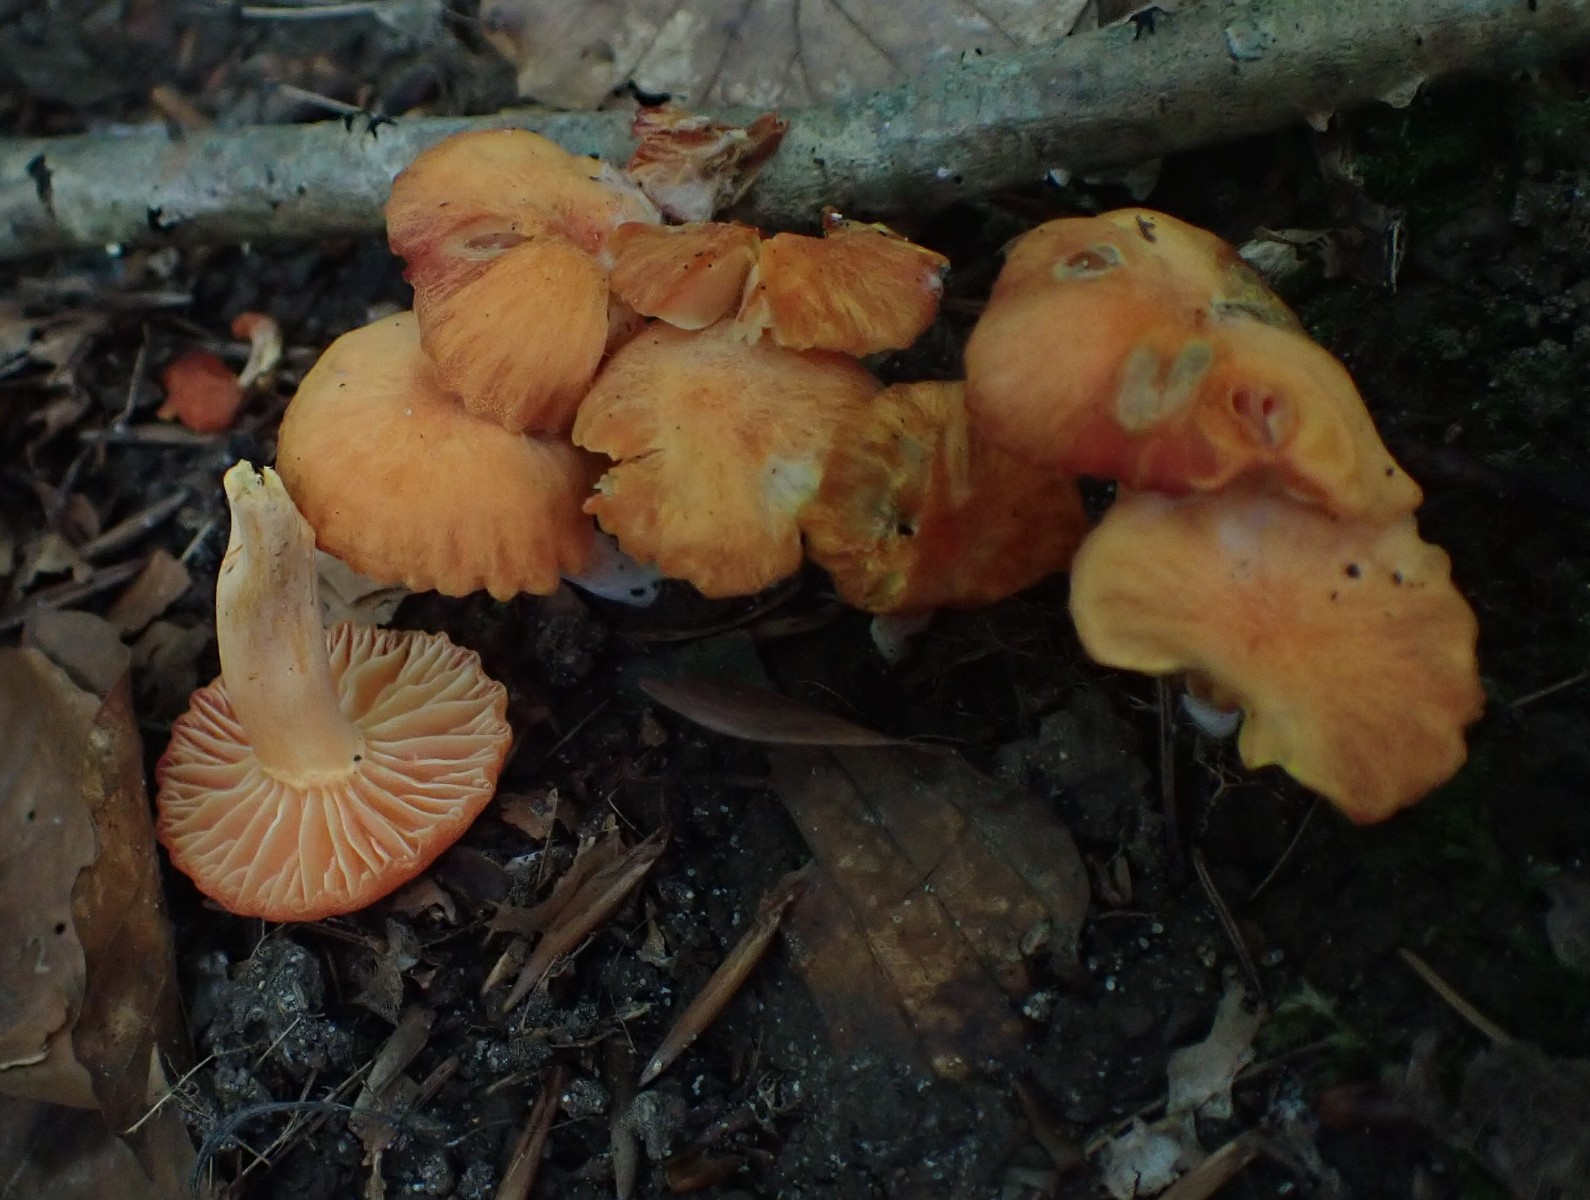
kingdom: Fungi
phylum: Basidiomycota
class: Agaricomycetes
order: Agaricales
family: Hygrophoraceae
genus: Hygrocybe
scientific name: Hygrocybe reidii
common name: honning-vokshat
